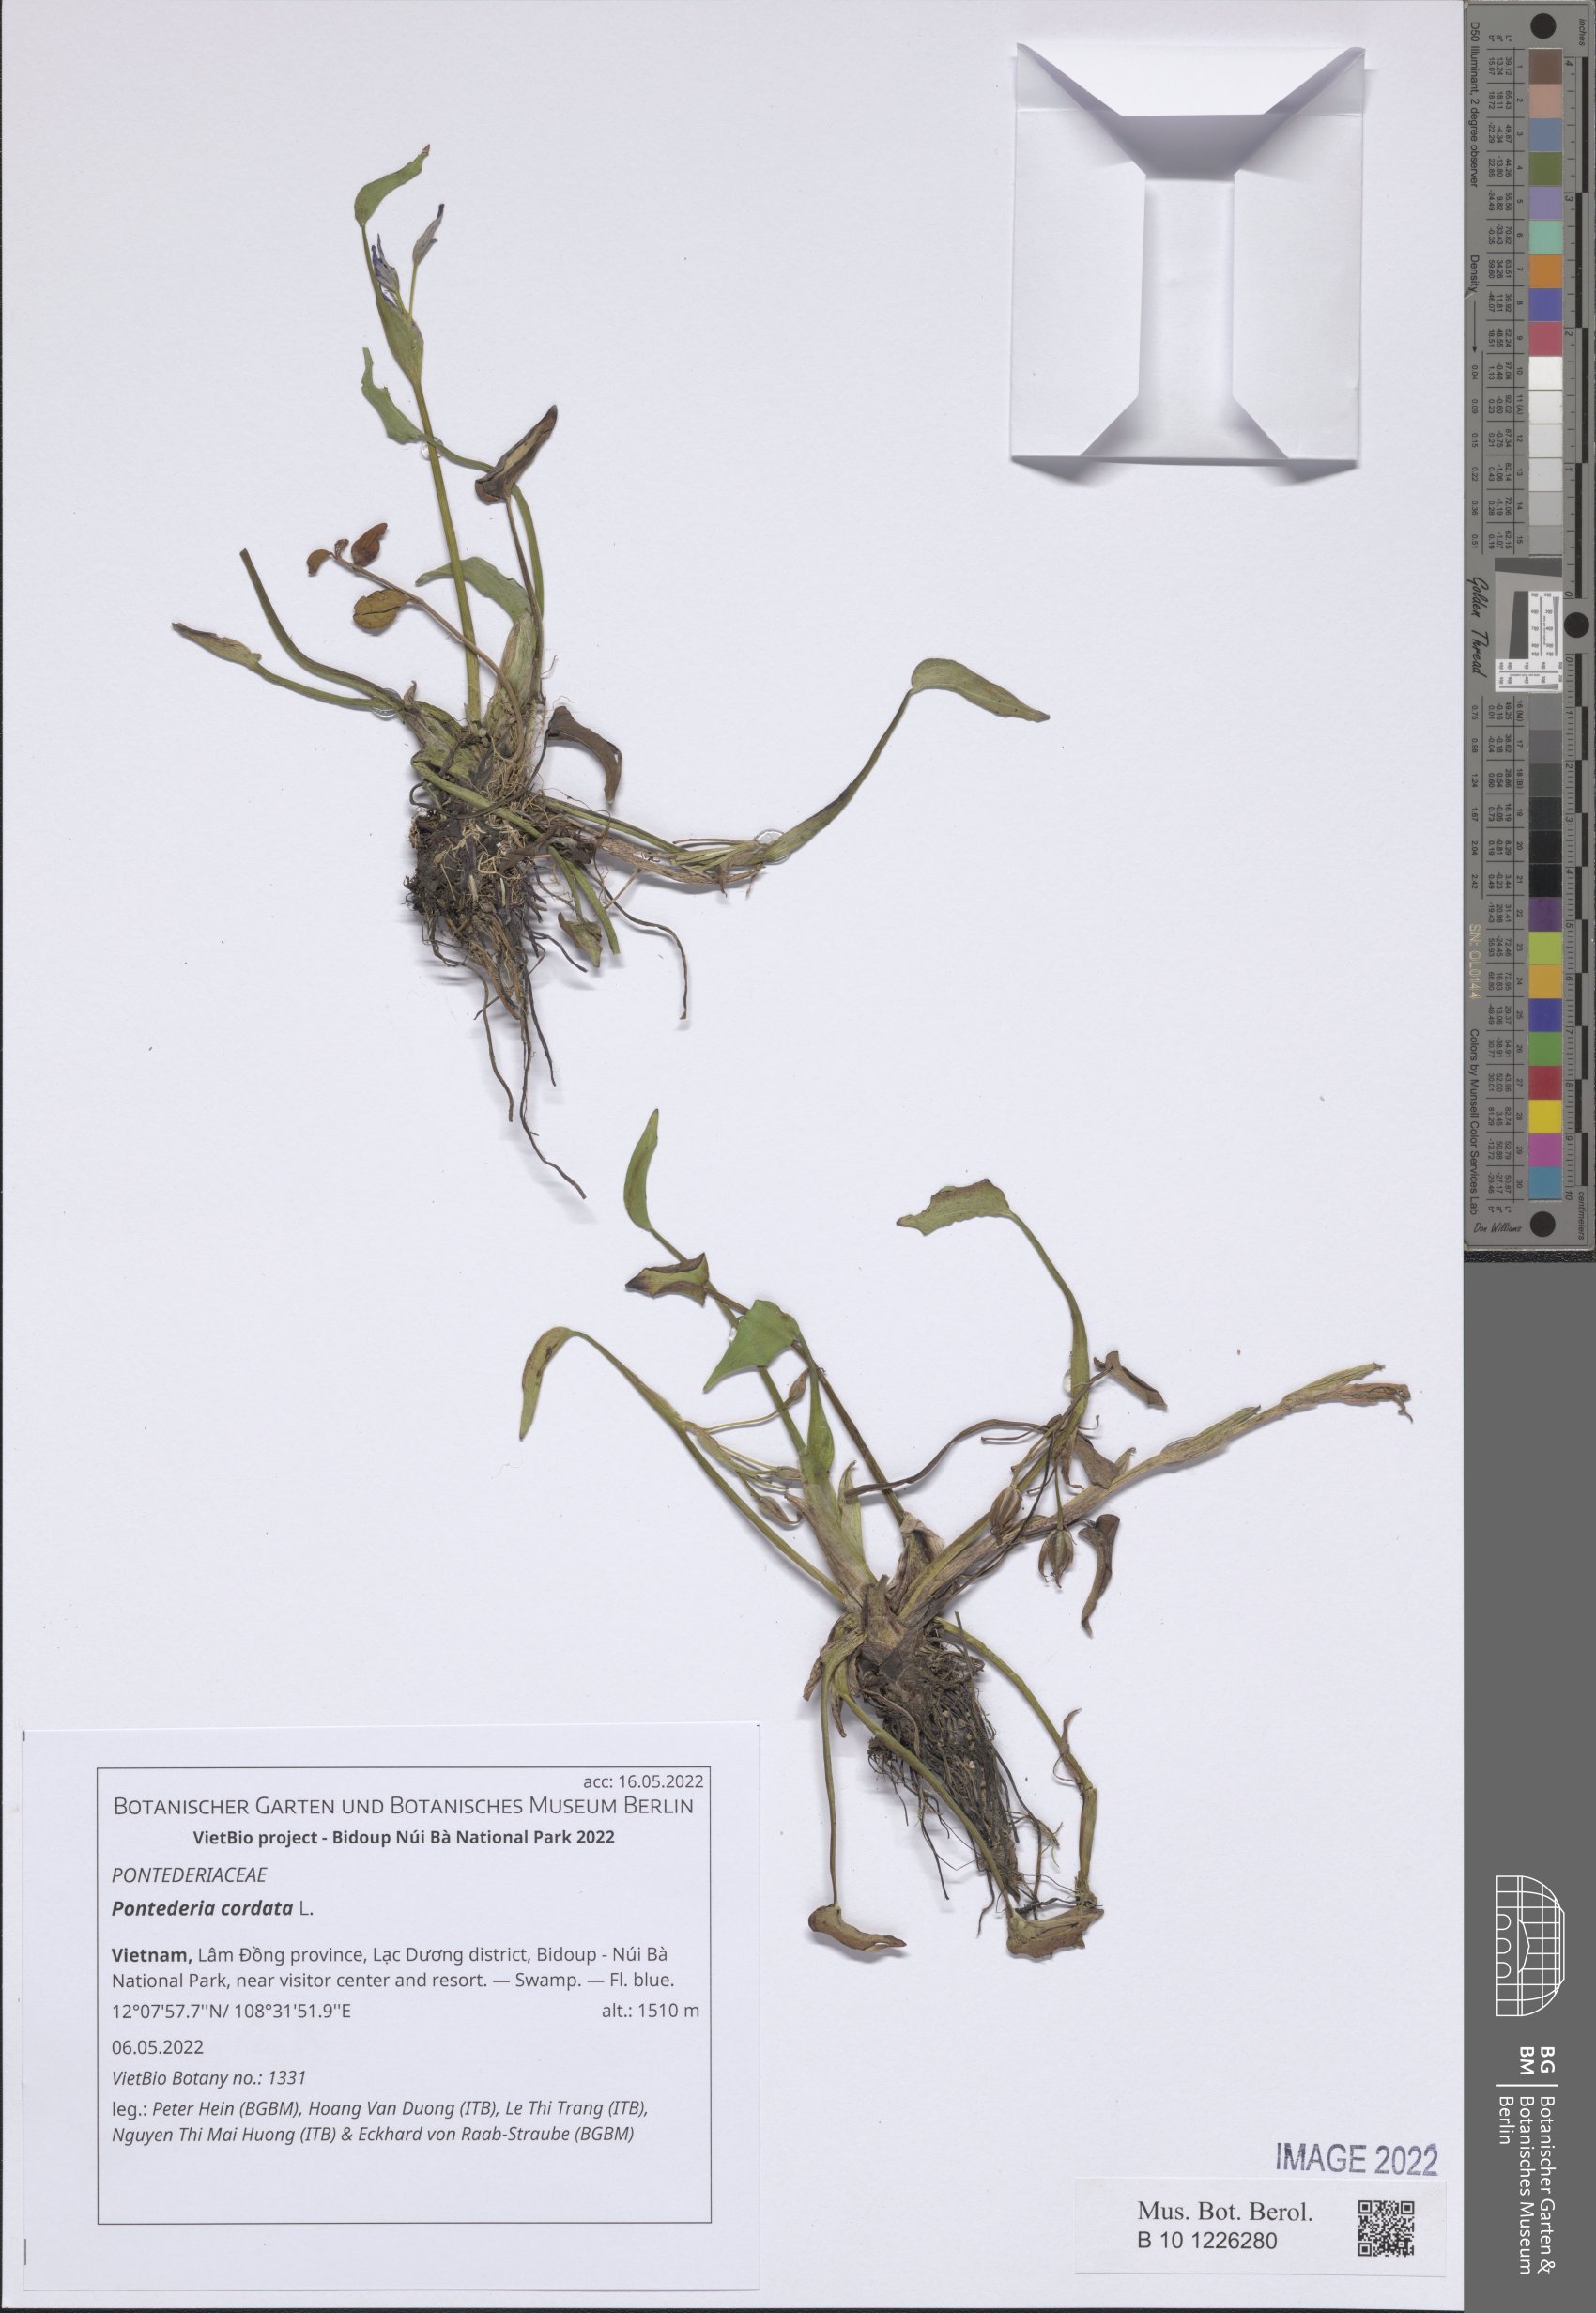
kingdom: Plantae
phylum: Tracheophyta
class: Liliopsida
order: Commelinales
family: Pontederiaceae
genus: Pontederia
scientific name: Pontederia cordata
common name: Pickerelweed
